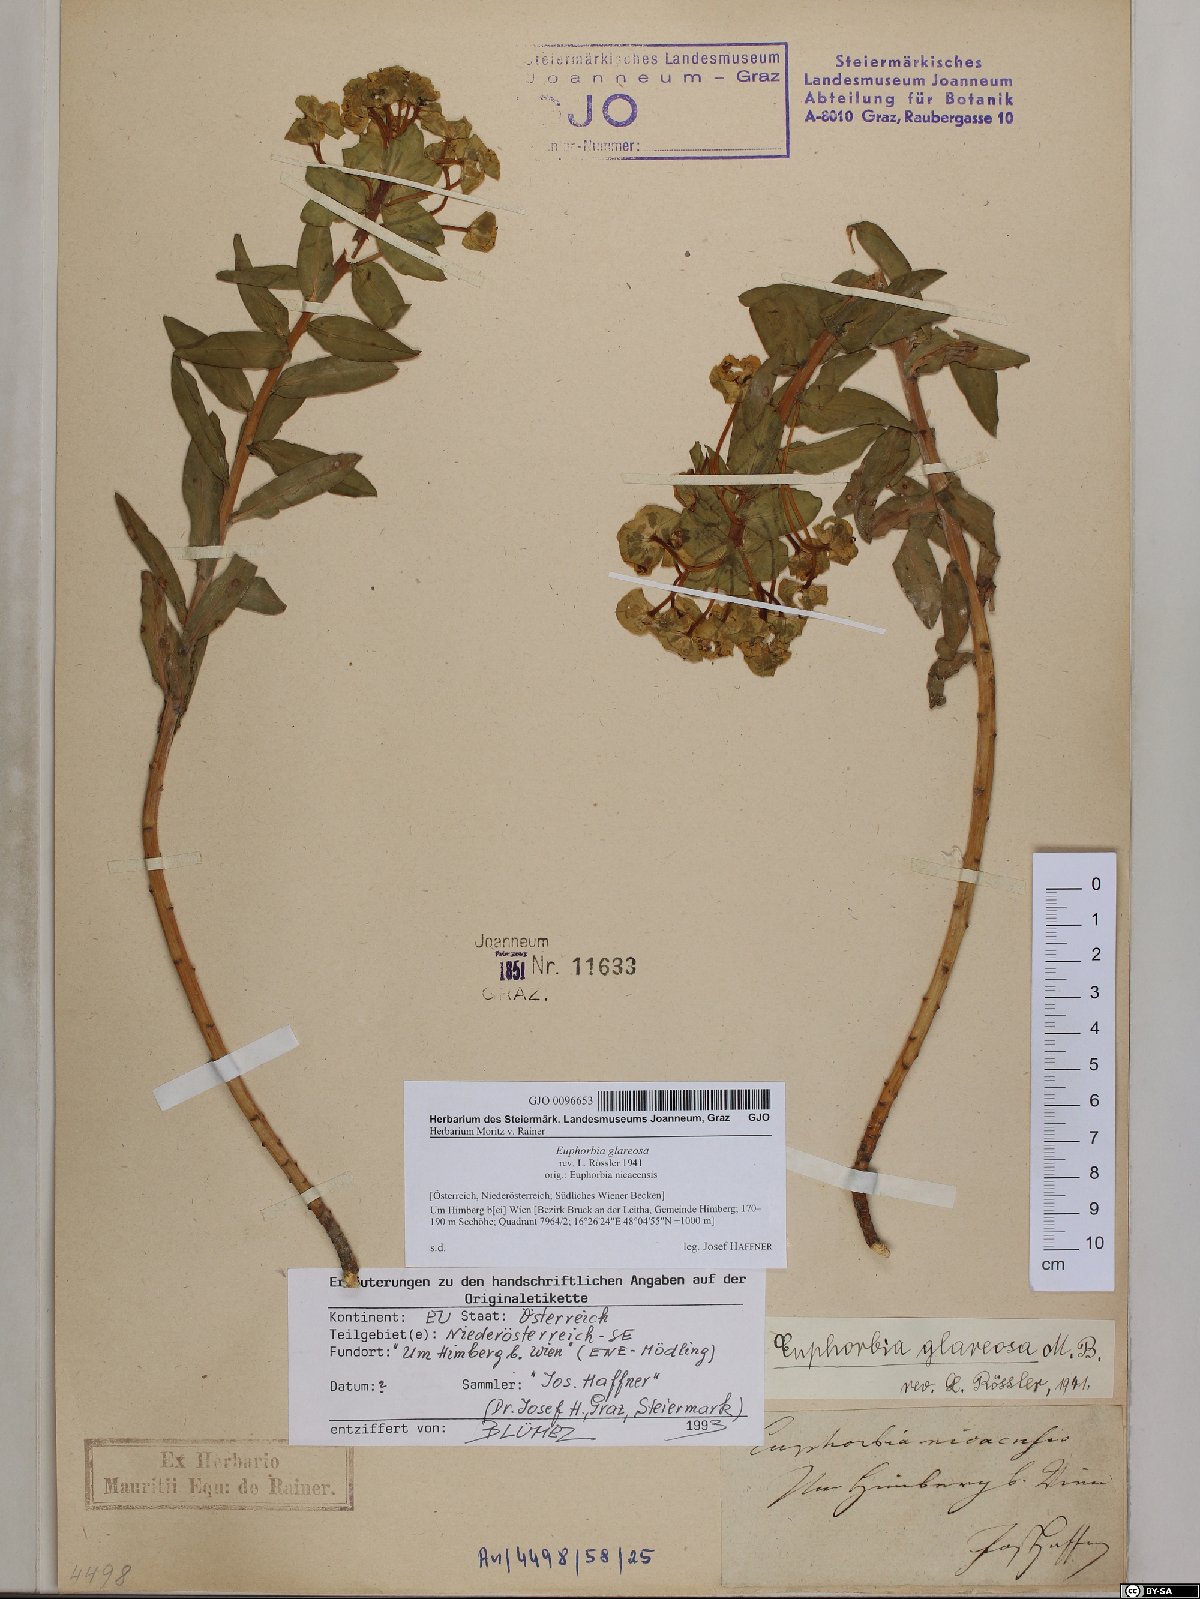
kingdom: Plantae
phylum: Tracheophyta
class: Magnoliopsida
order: Malpighiales
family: Euphorbiaceae
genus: Euphorbia
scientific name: Euphorbia glareosa
